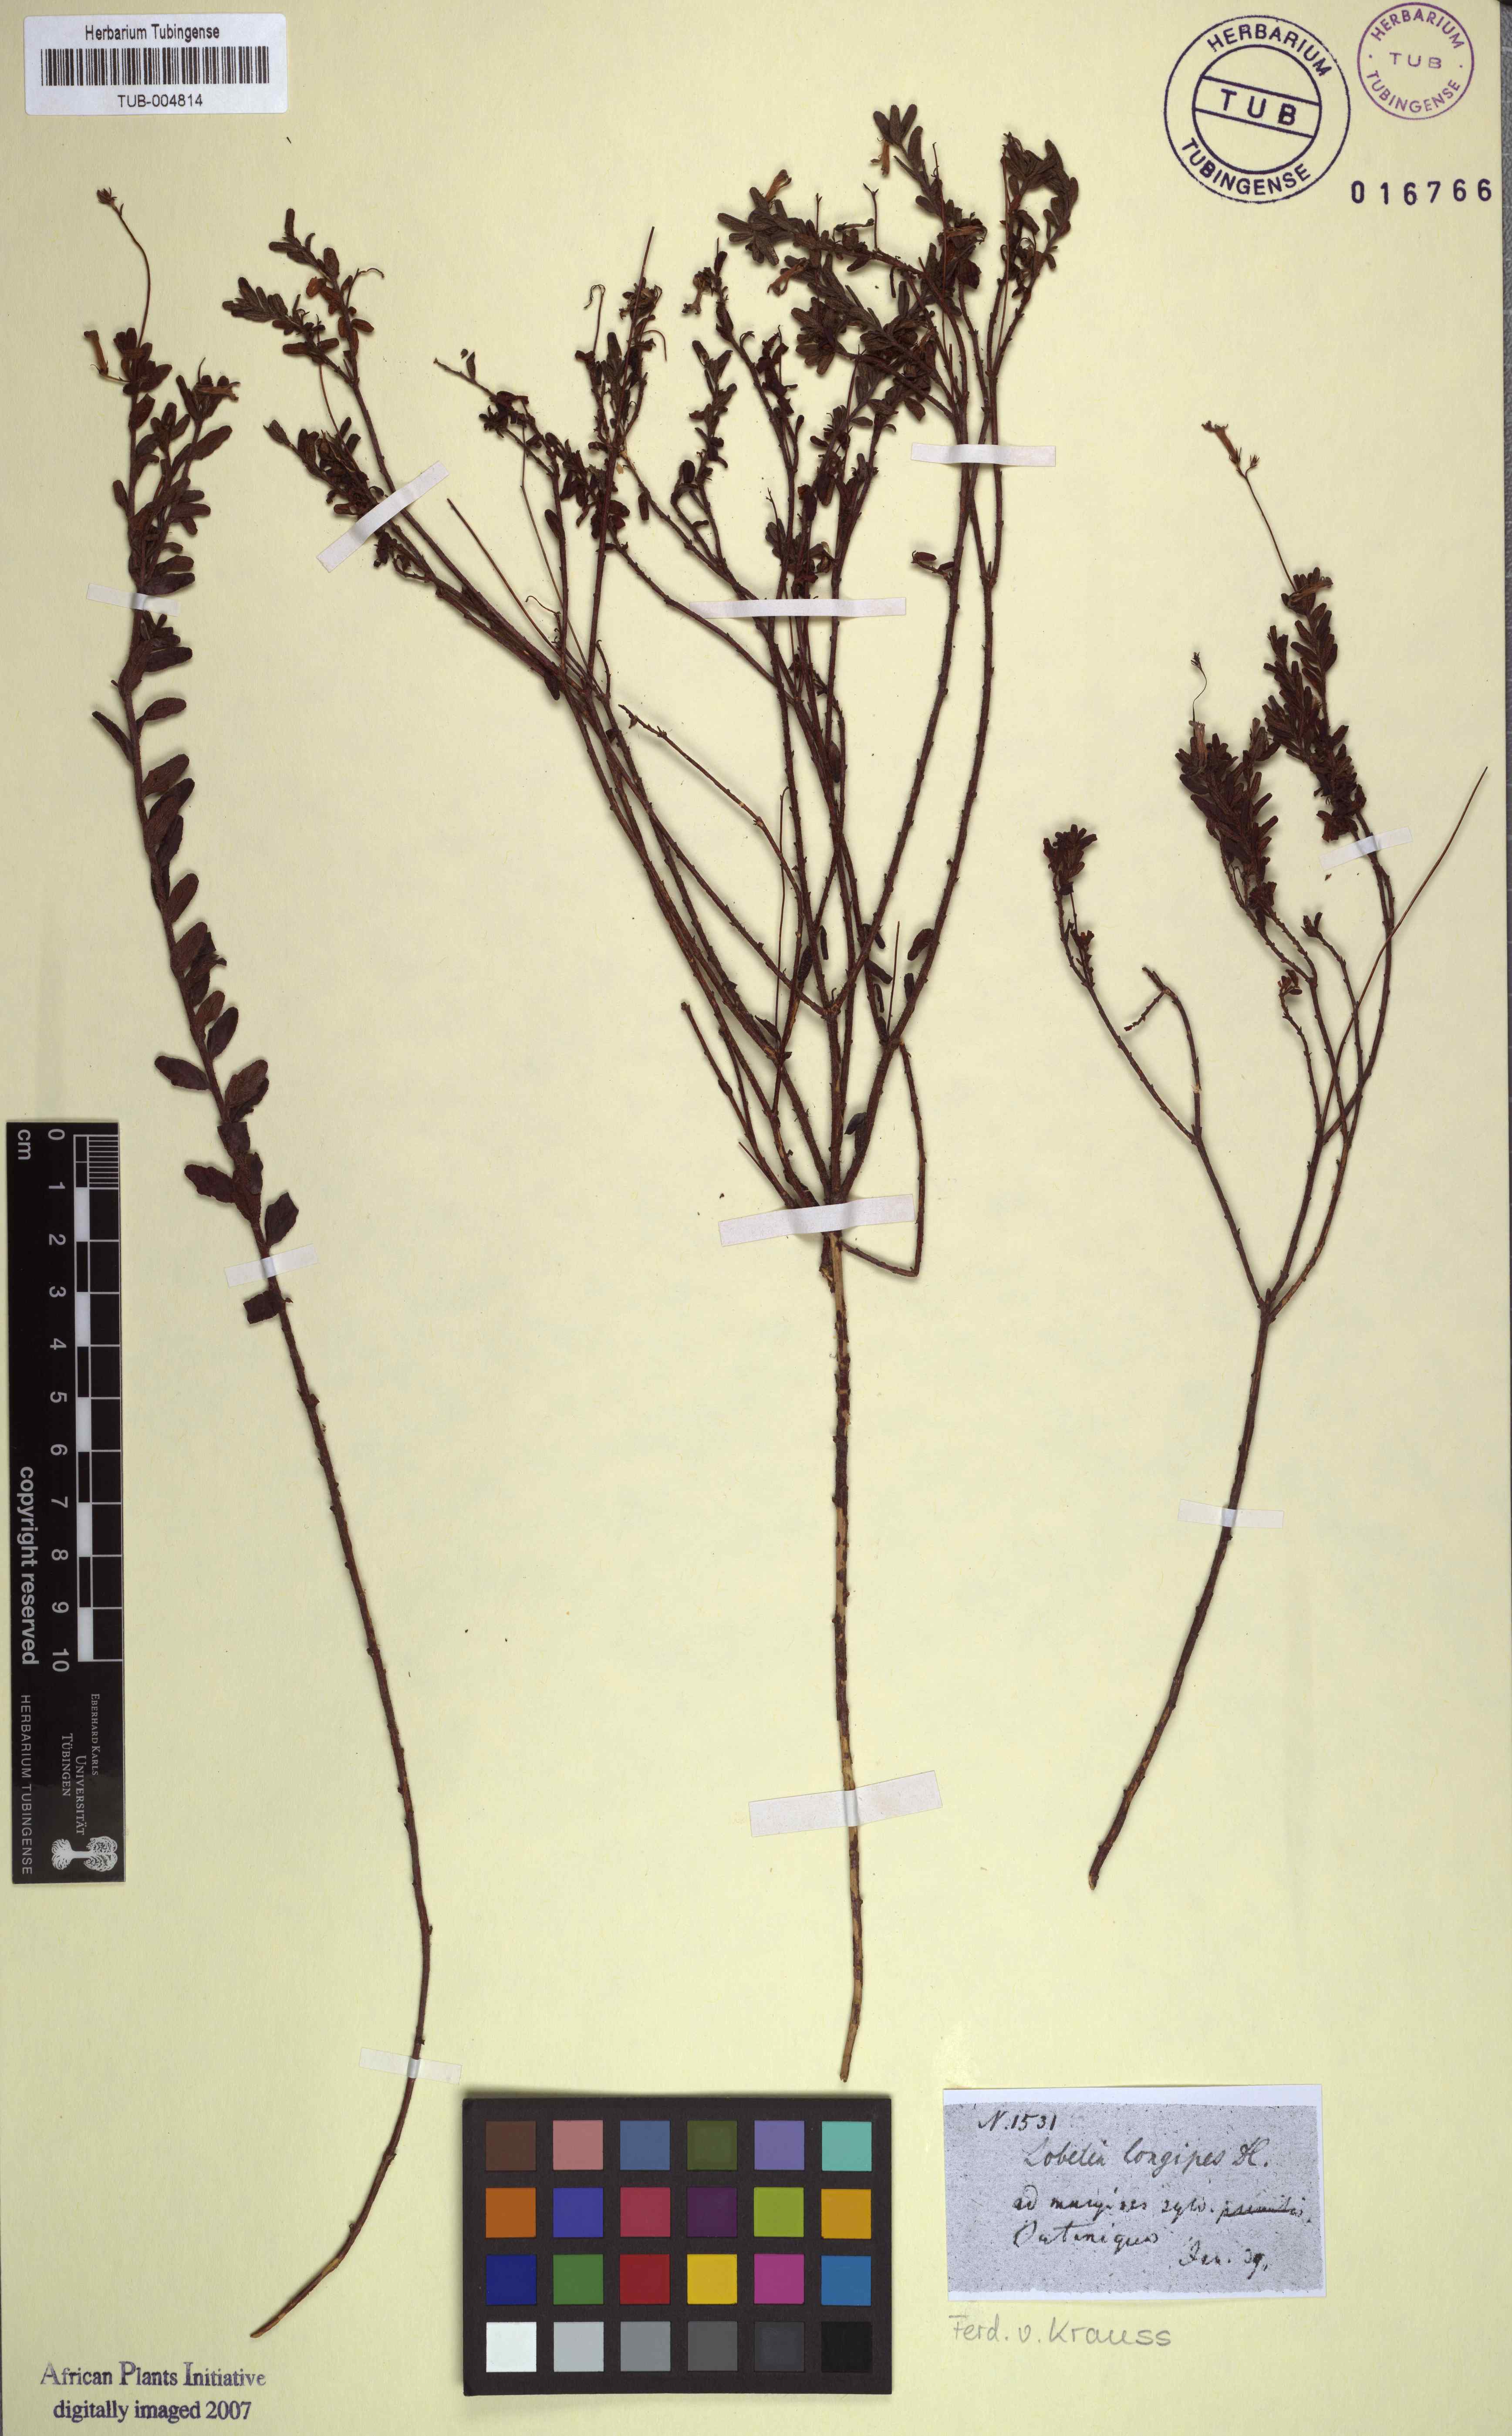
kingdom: Plantae
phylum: Tracheophyta
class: Magnoliopsida
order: Malvales
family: Thymelaeaceae
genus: Gnidia
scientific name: Gnidia hirsuta
